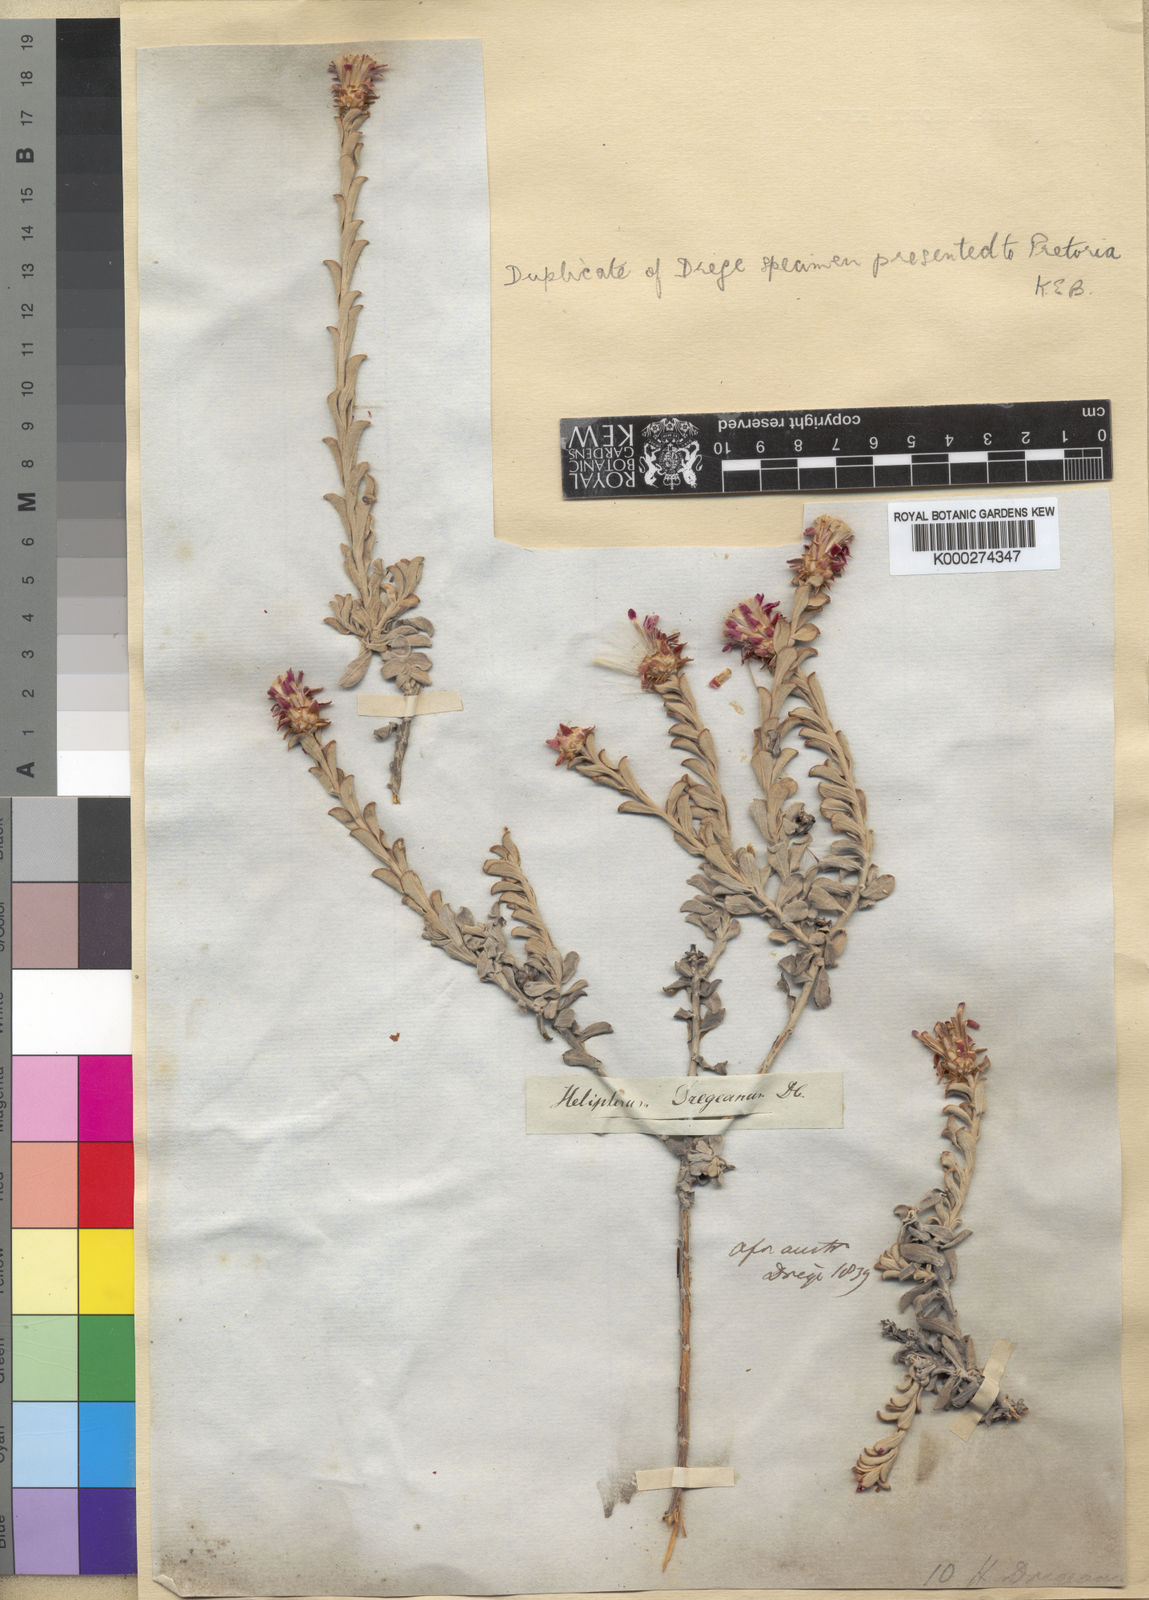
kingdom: Plantae
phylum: Tracheophyta
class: Magnoliopsida
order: Asterales
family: Asteraceae
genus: Syncarpha
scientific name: Syncarpha dregeana
